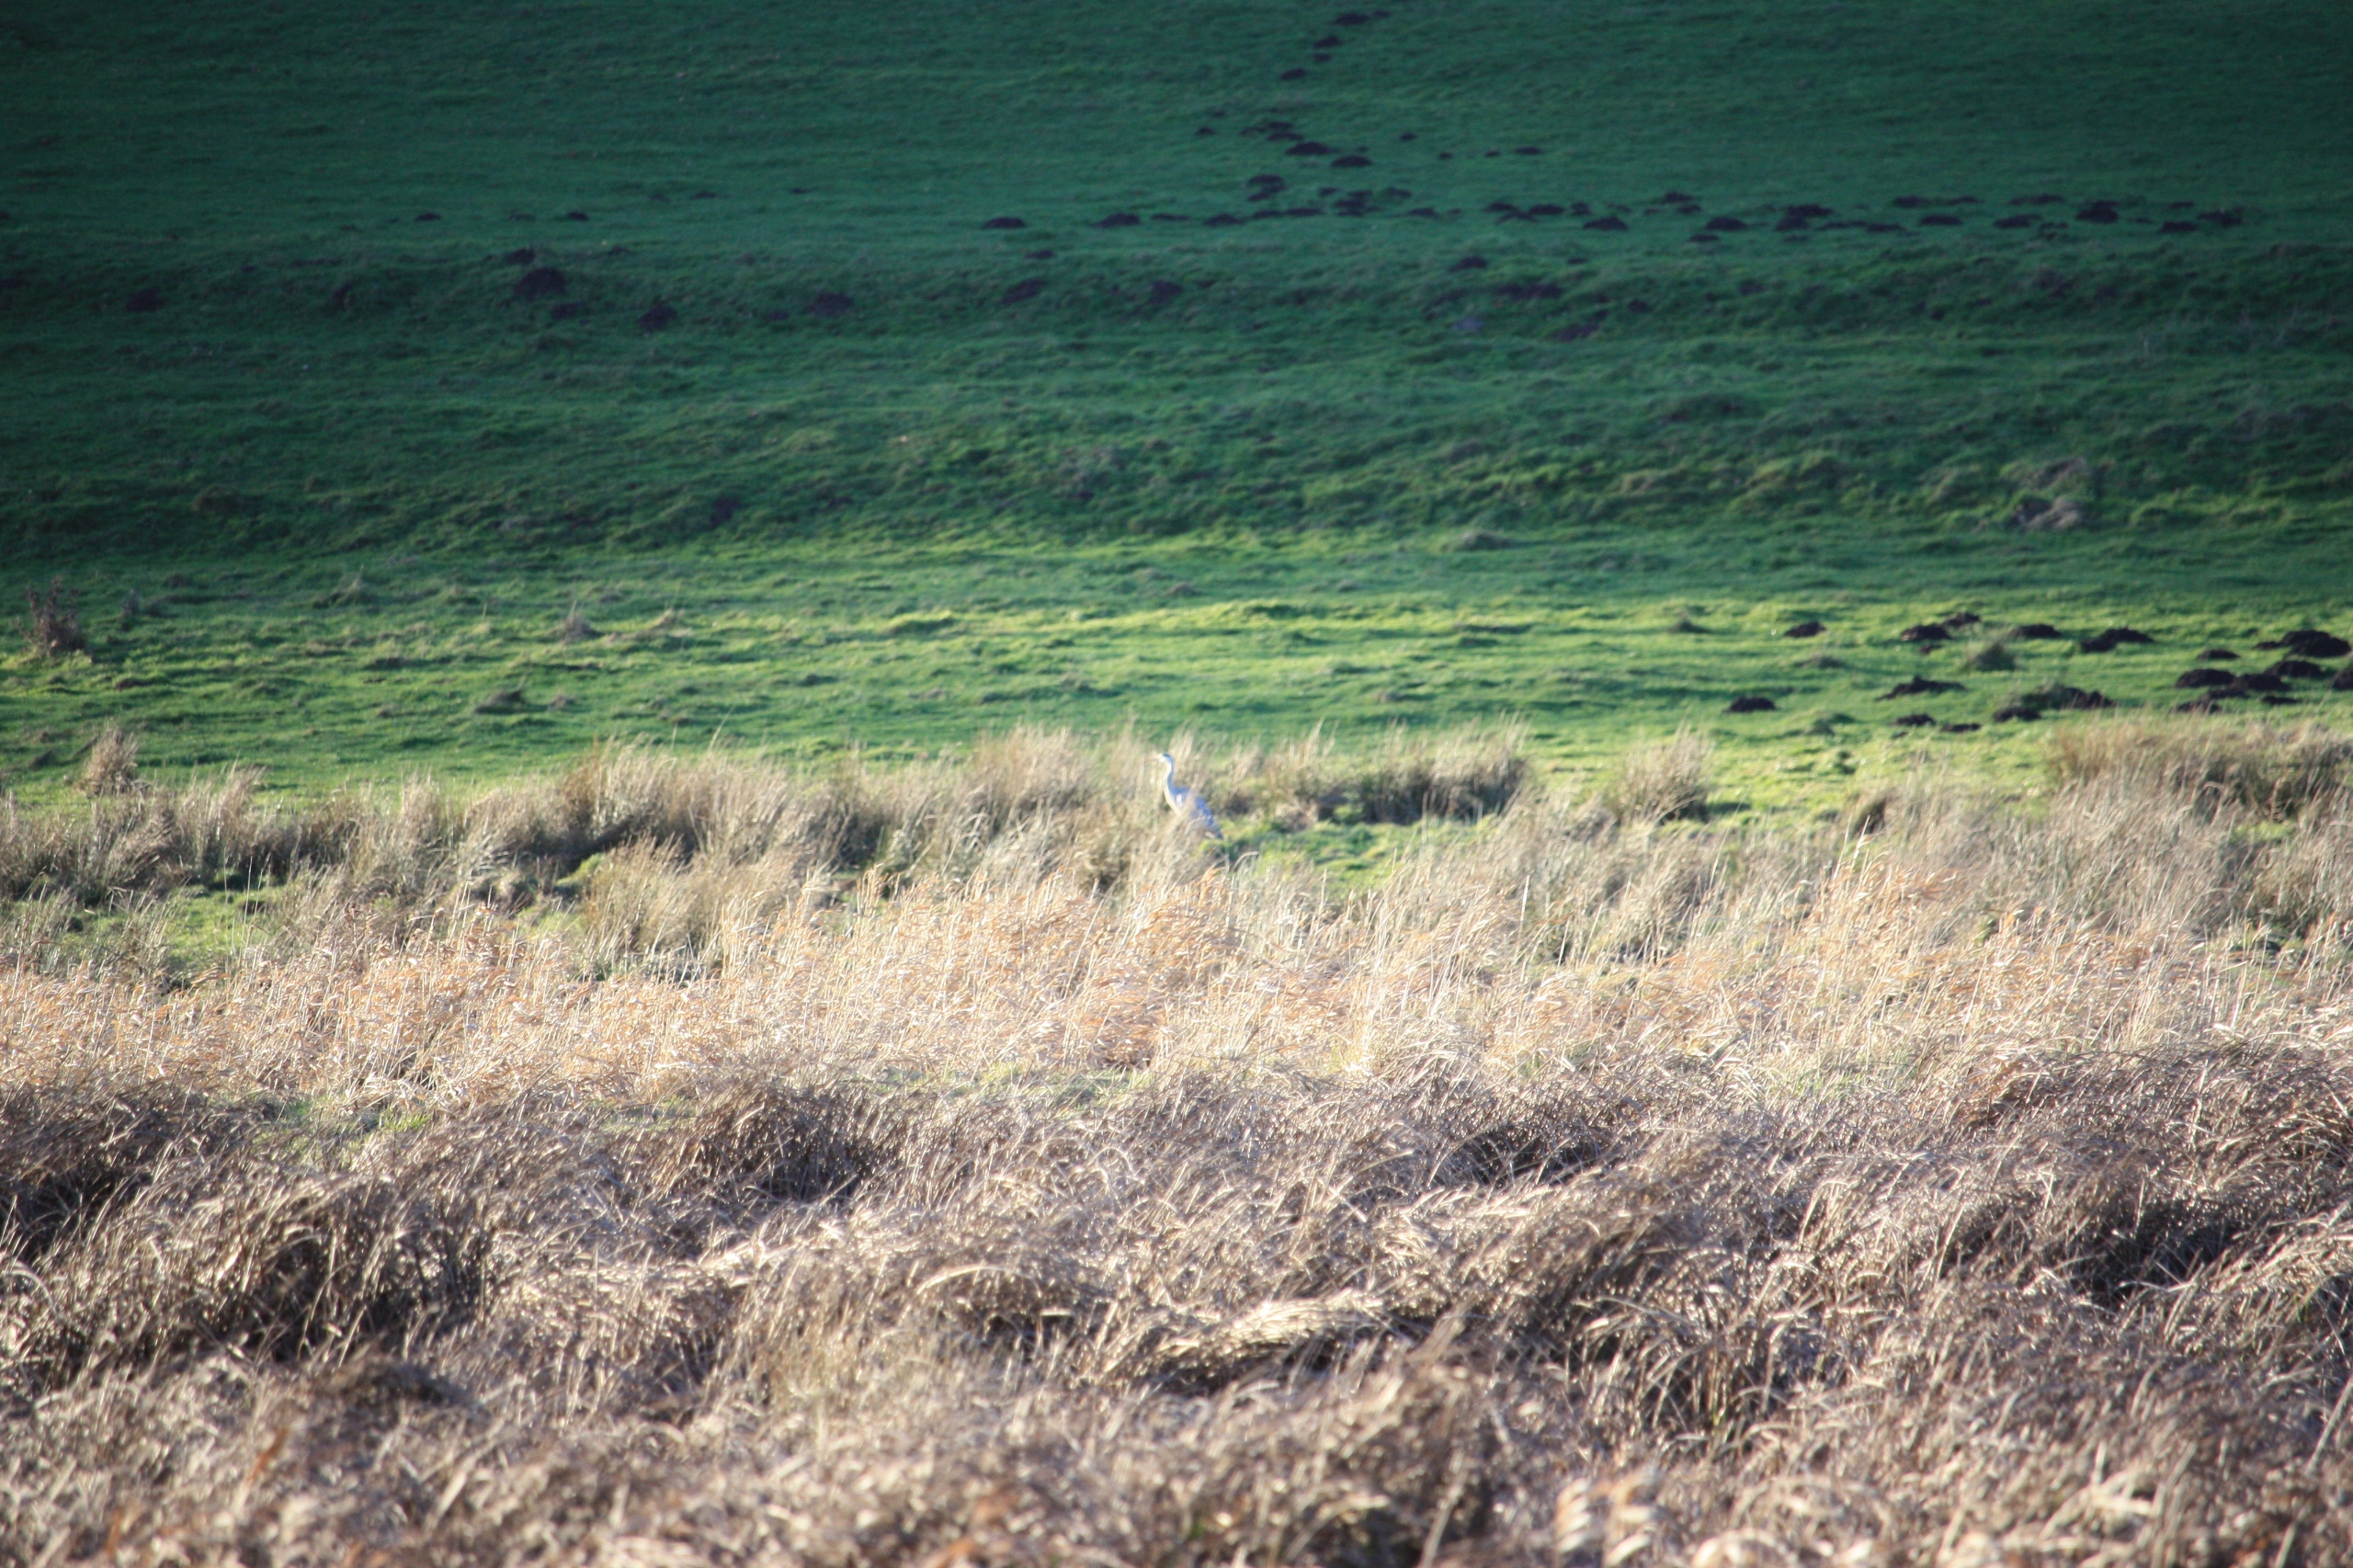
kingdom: Animalia
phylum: Chordata
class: Aves
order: Pelecaniformes
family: Ardeidae
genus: Ardea
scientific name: Ardea cinerea
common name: Fiskehejre
